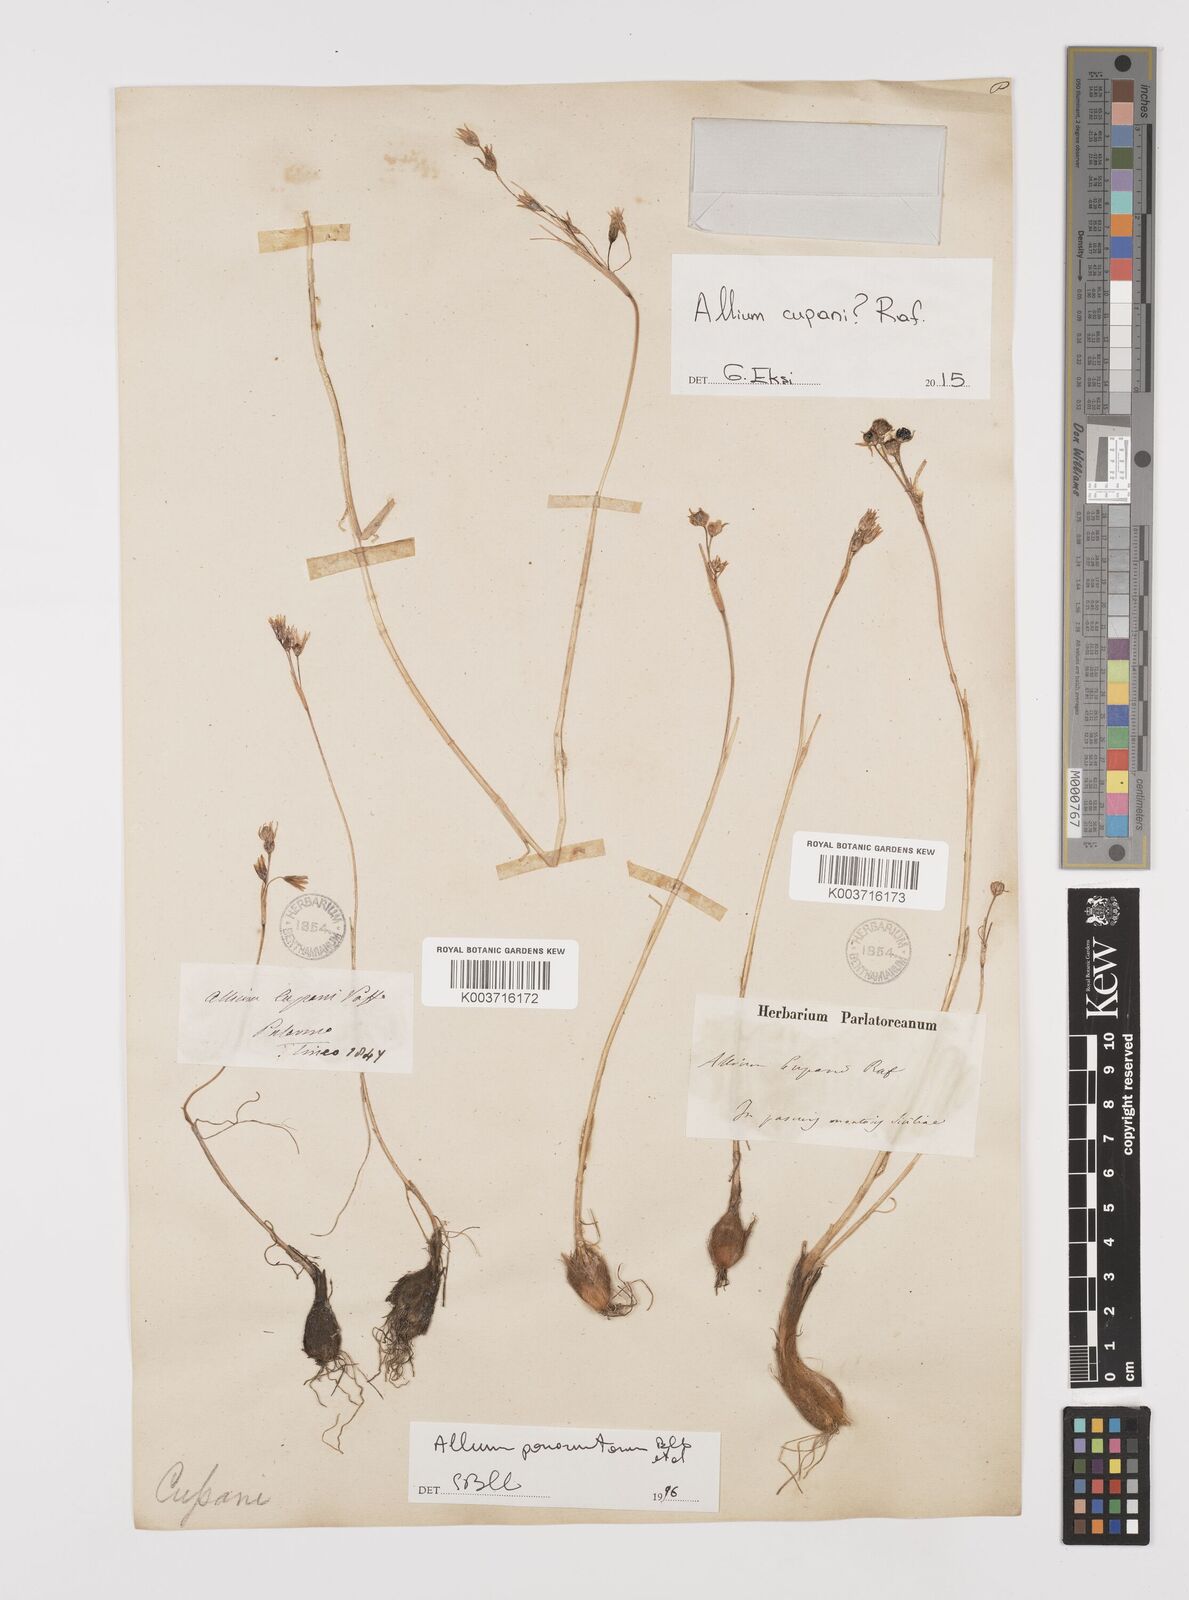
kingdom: Plantae
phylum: Tracheophyta
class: Liliopsida
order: Asparagales
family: Amaryllidaceae
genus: Allium
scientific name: Allium cupani
